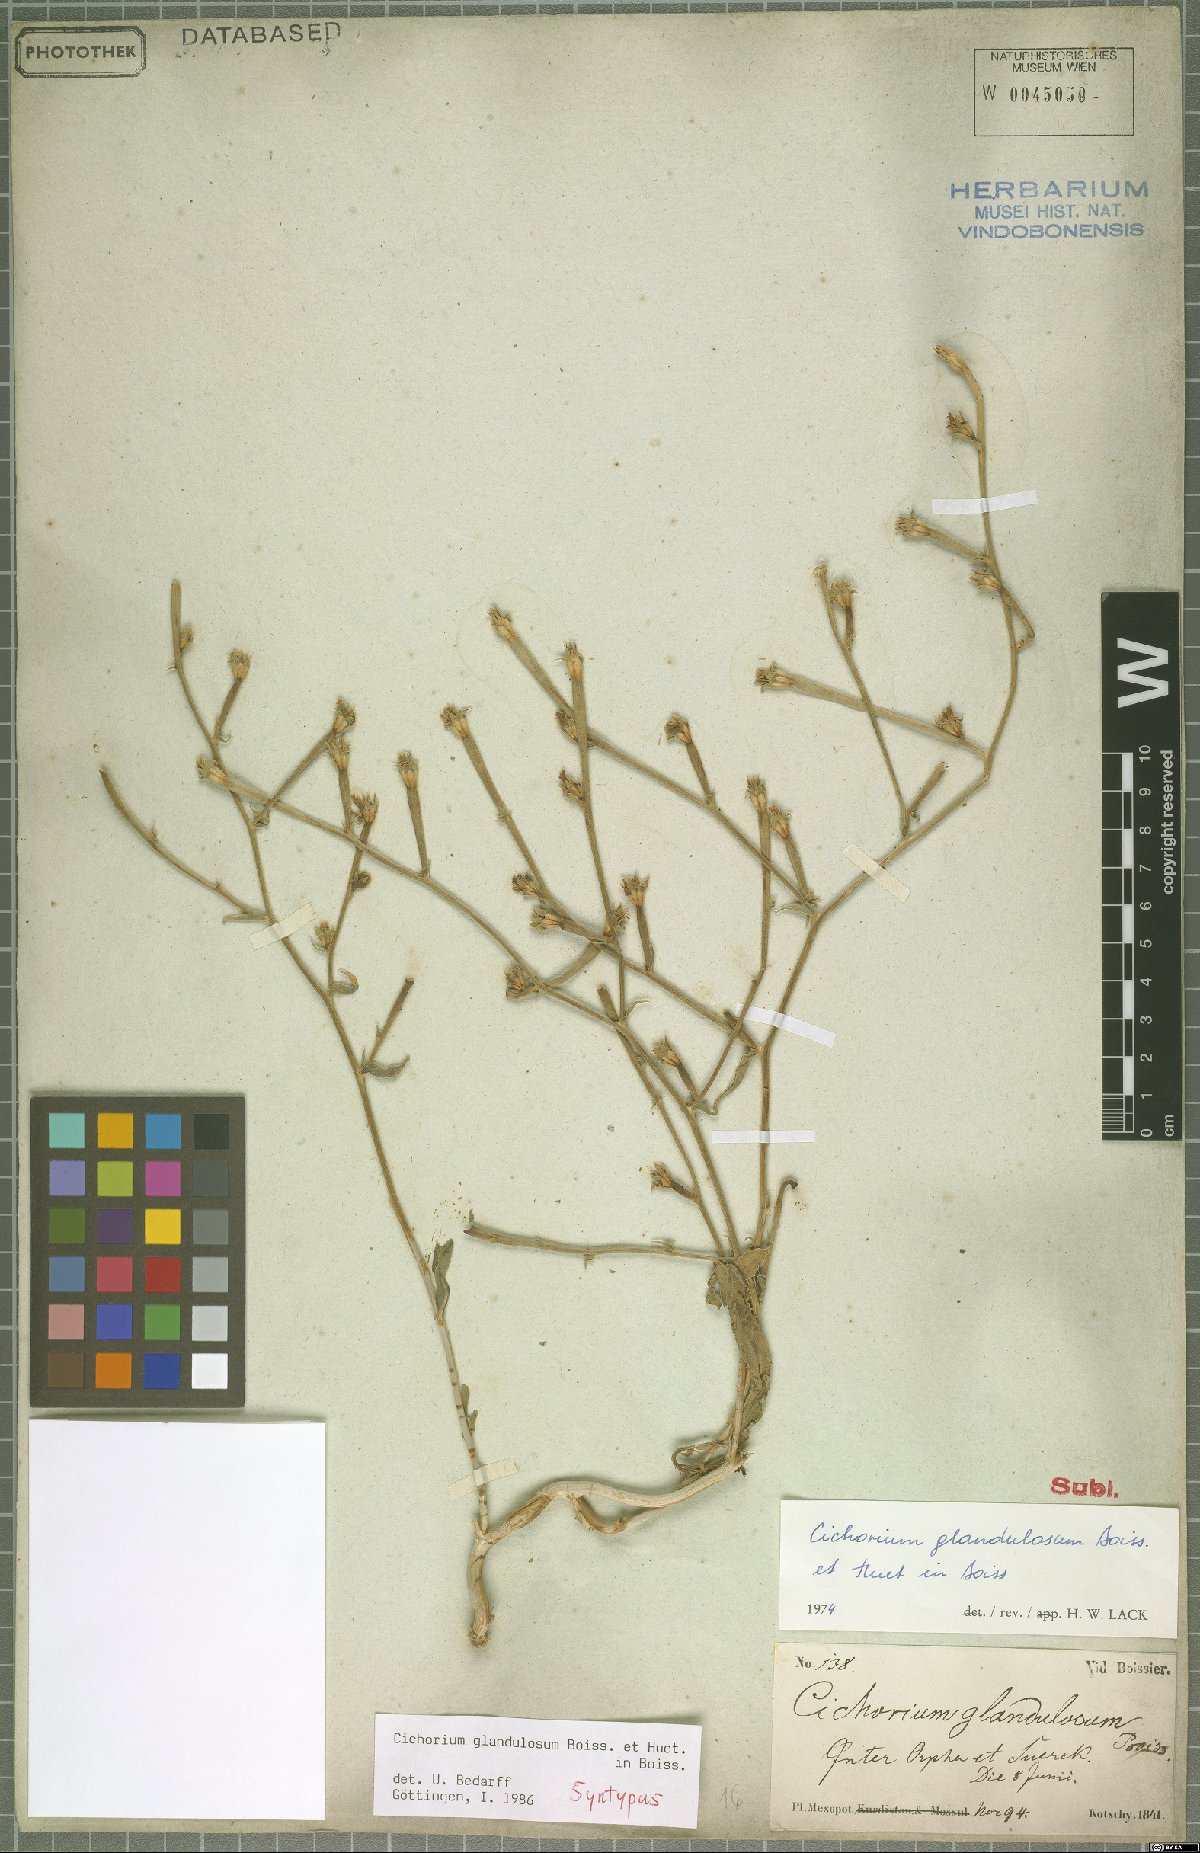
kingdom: Plantae
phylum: Tracheophyta
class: Magnoliopsida
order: Asterales
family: Asteraceae
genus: Cichorium
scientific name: Cichorium glandulosum
